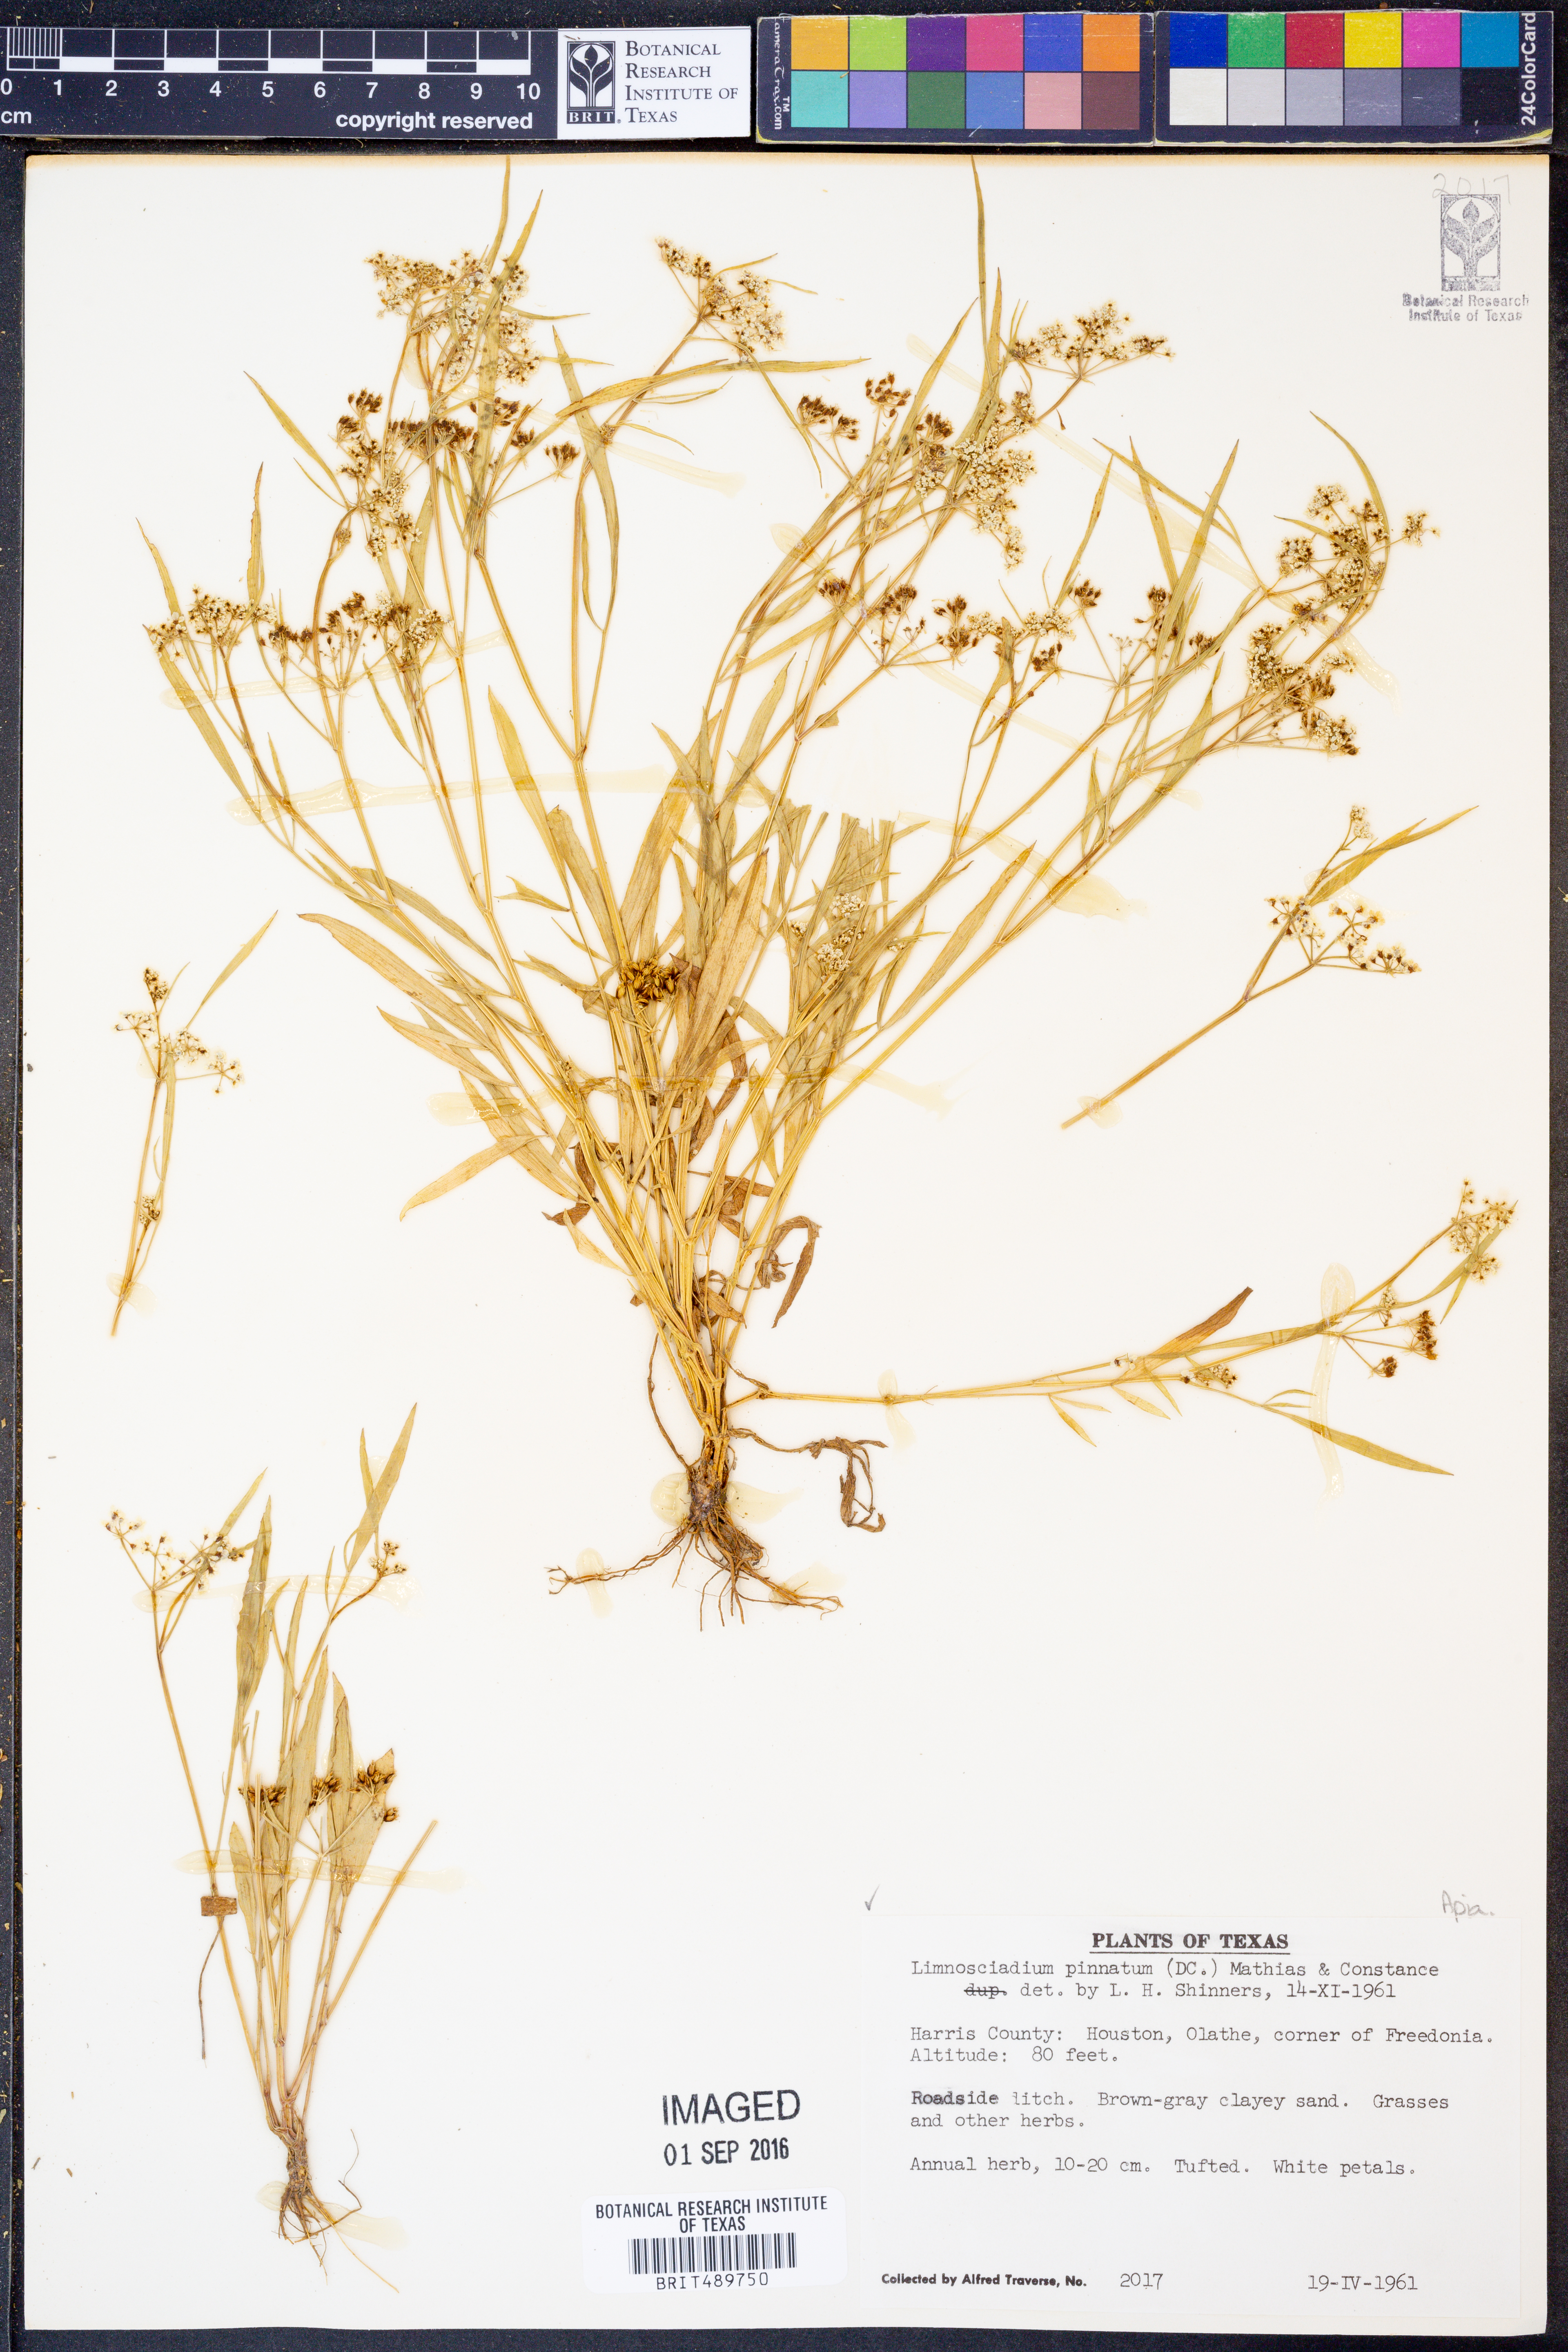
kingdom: Plantae
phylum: Tracheophyta
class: Magnoliopsida
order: Apiales
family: Apiaceae
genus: Limnosciadium
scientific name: Limnosciadium pinnatum
